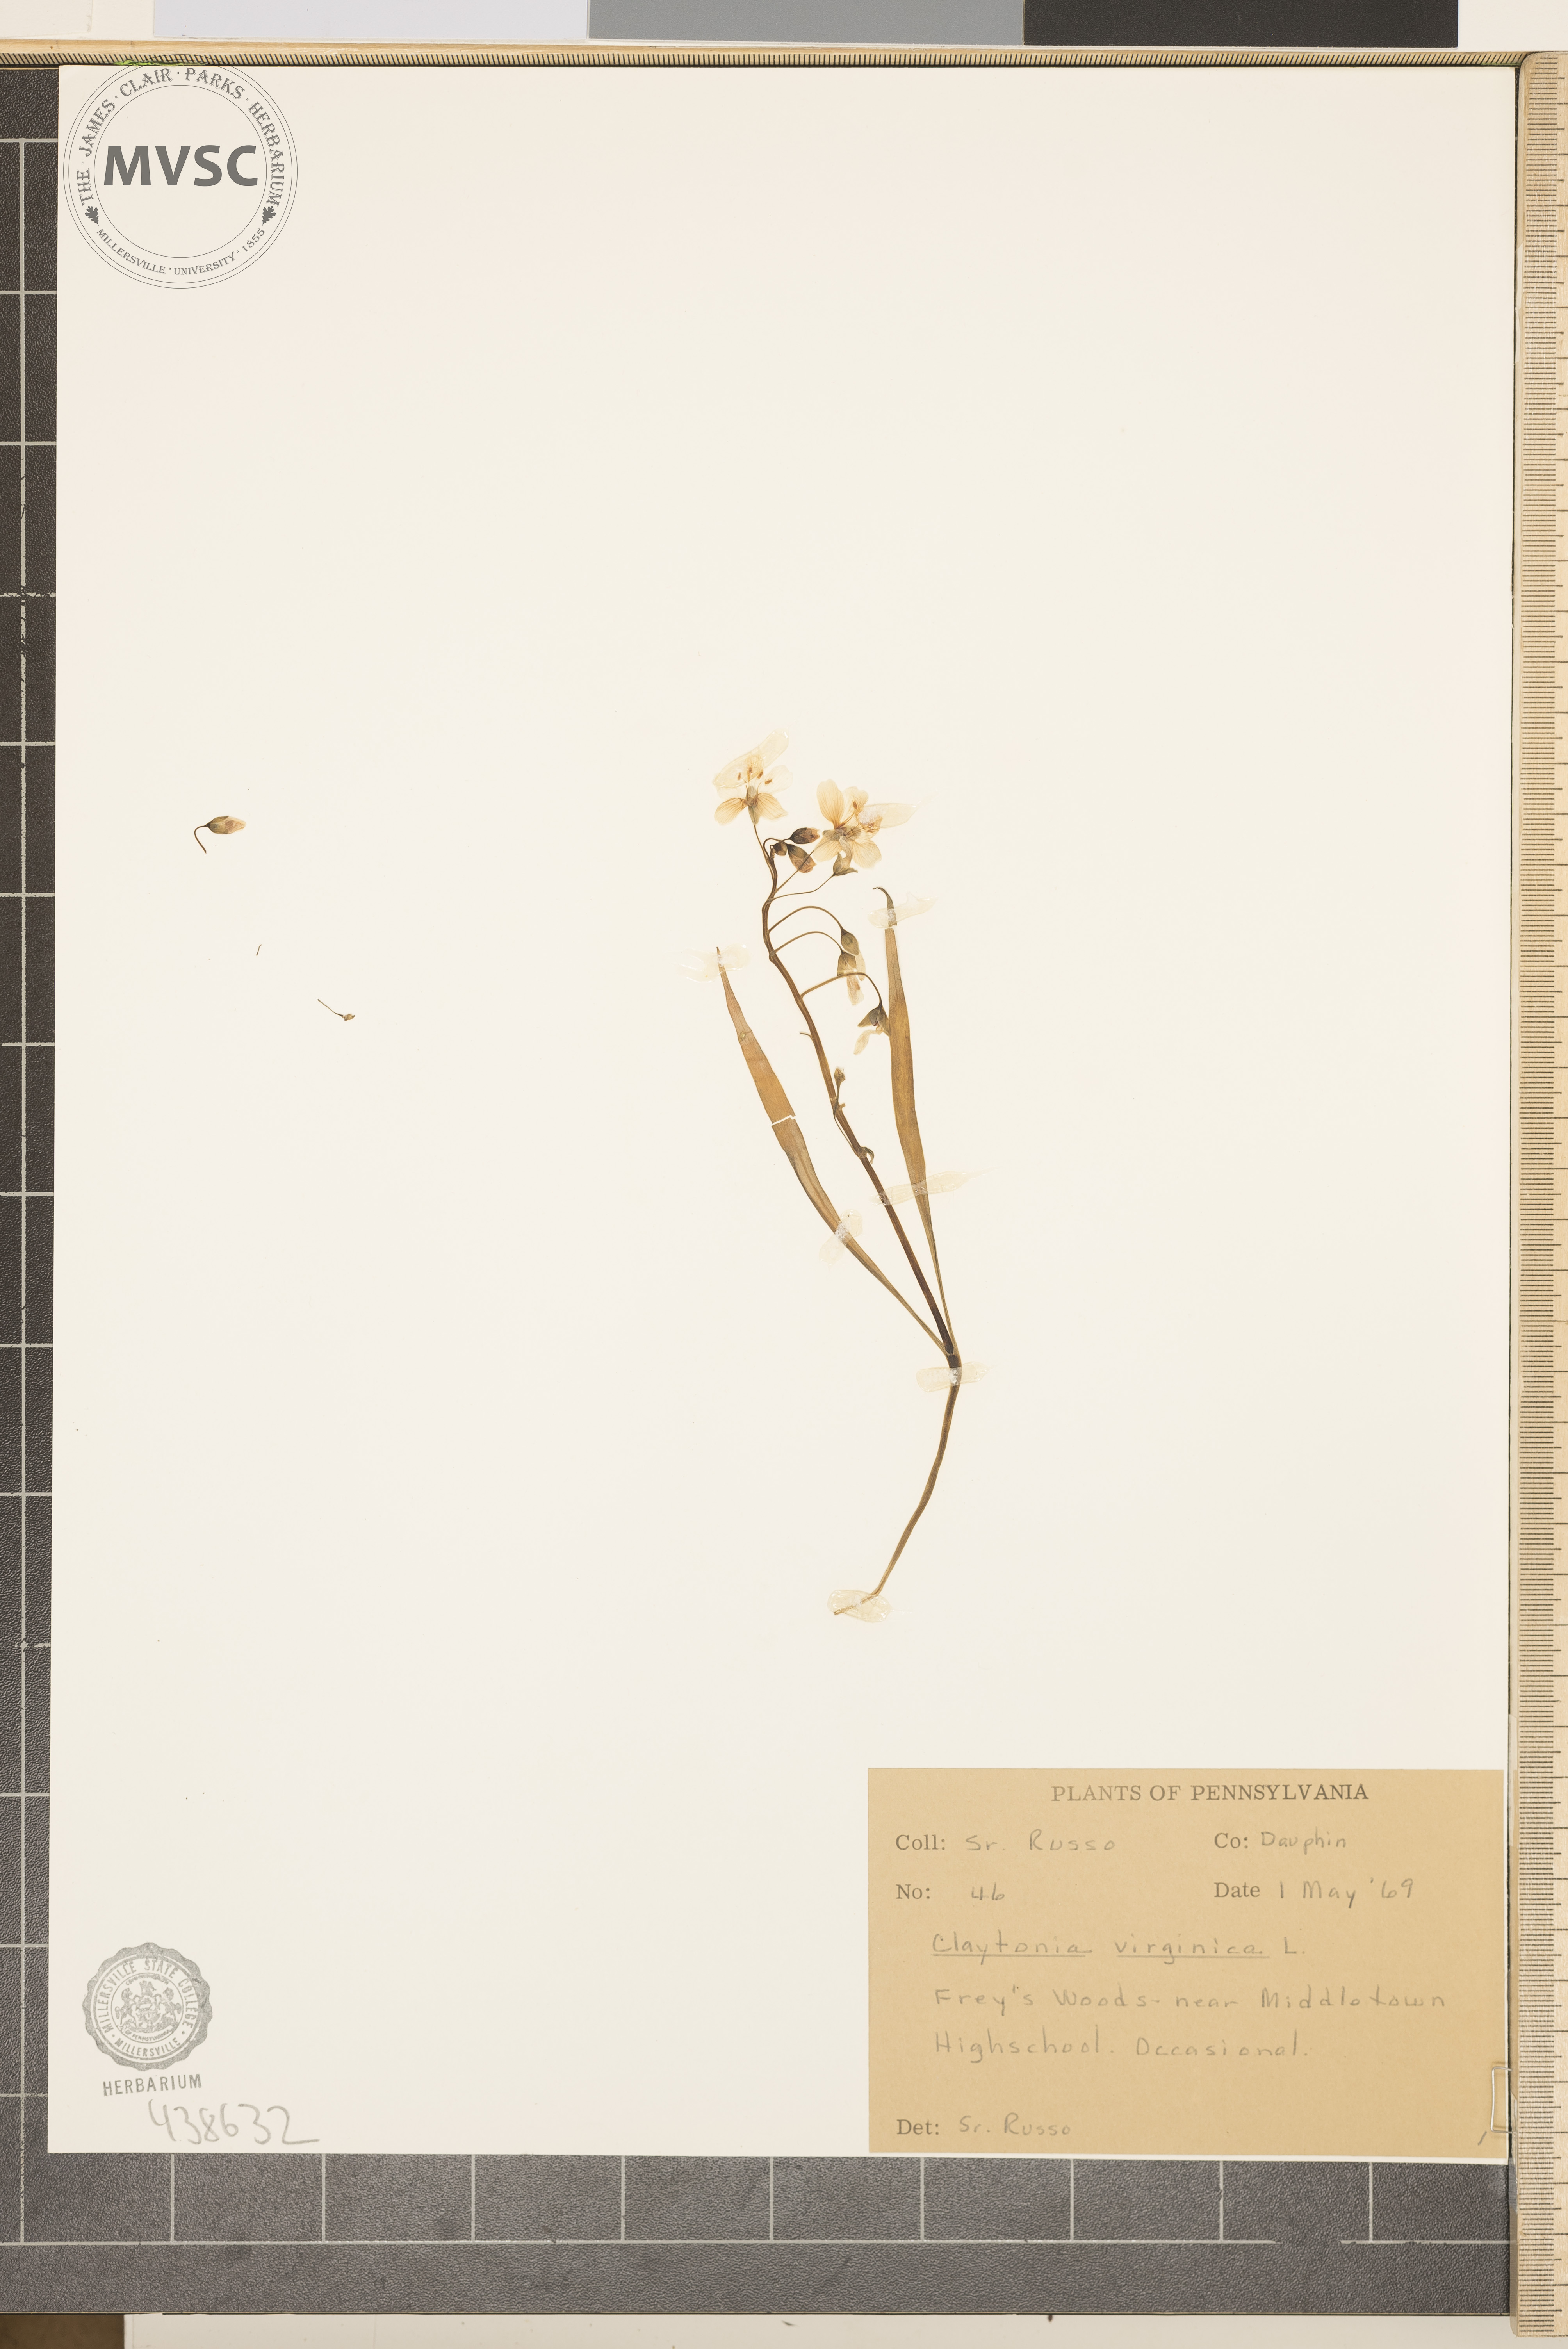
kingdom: Plantae
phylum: Tracheophyta
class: Magnoliopsida
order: Caryophyllales
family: Montiaceae
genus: Claytonia
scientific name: Claytonia virginica
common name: Virginia springbeauty
